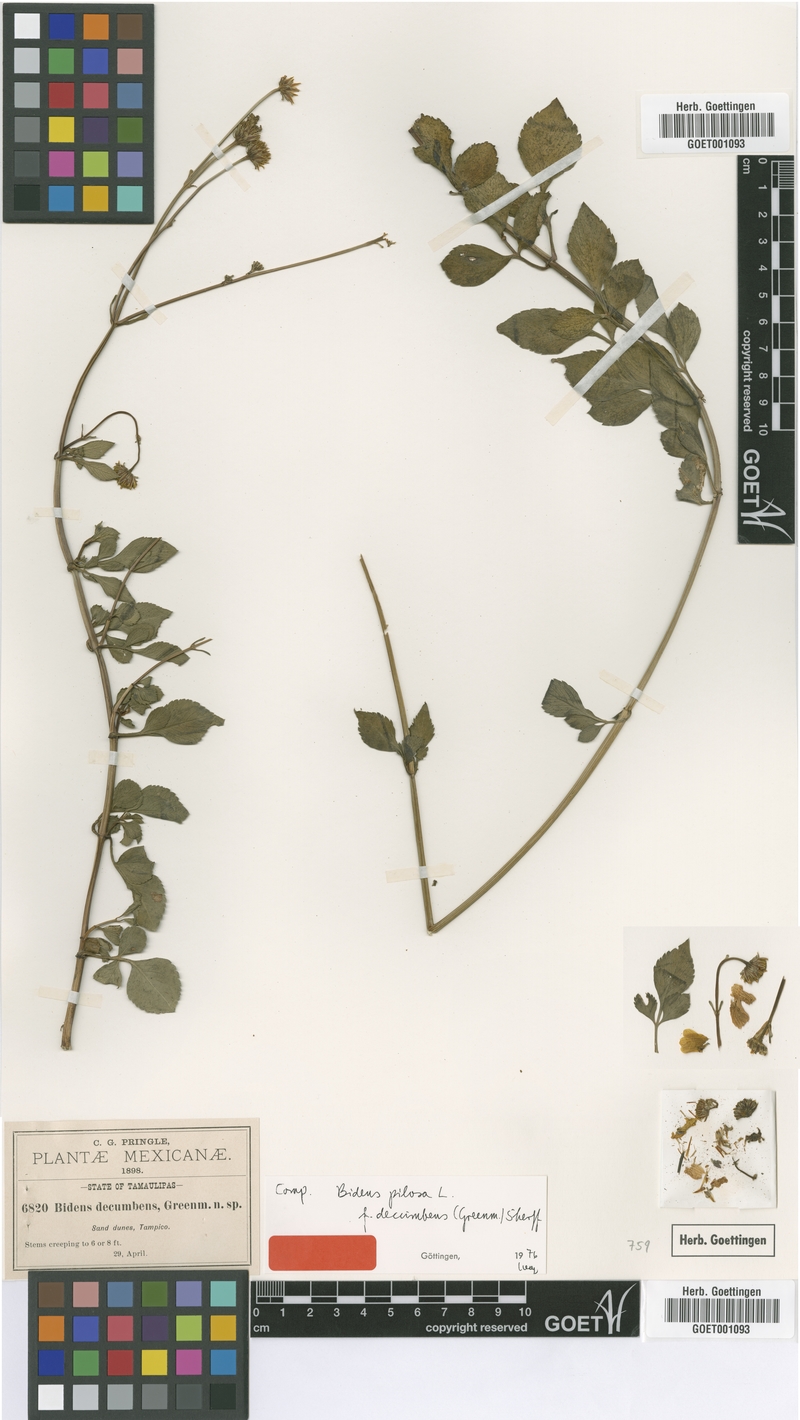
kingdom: Plantae
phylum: Tracheophyta
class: Magnoliopsida
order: Asterales
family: Asteraceae
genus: Bidens
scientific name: Bidens alba
